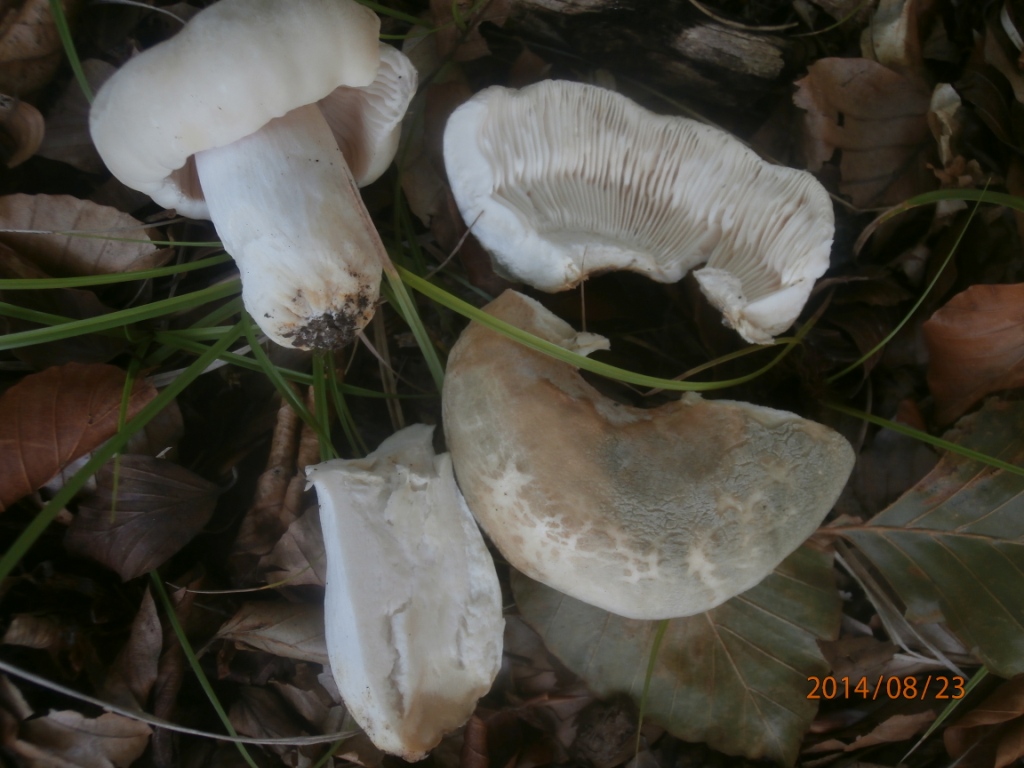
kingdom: Fungi
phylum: Basidiomycota
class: Agaricomycetes
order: Russulales
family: Russulaceae
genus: Russula
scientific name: Russula virescens
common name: spanskgrøn skørhat
